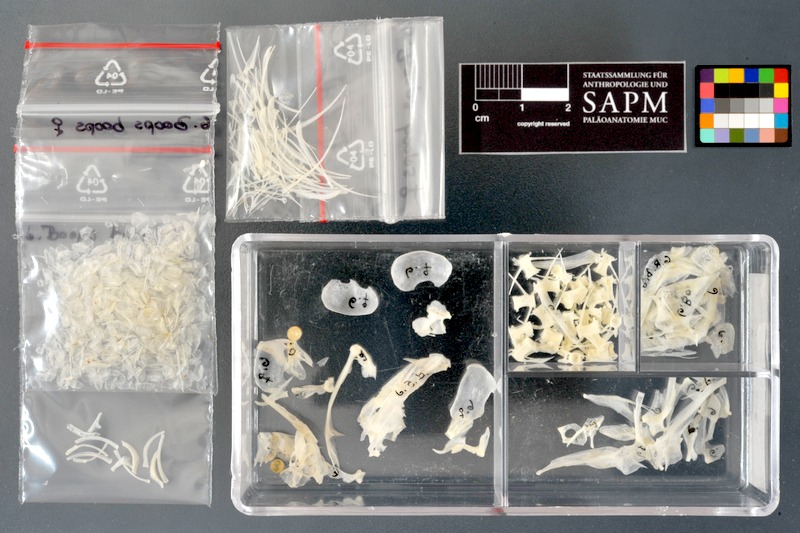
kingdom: Animalia
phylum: Chordata
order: Perciformes
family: Sparidae
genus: Boops
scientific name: Boops boops
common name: Bogue
